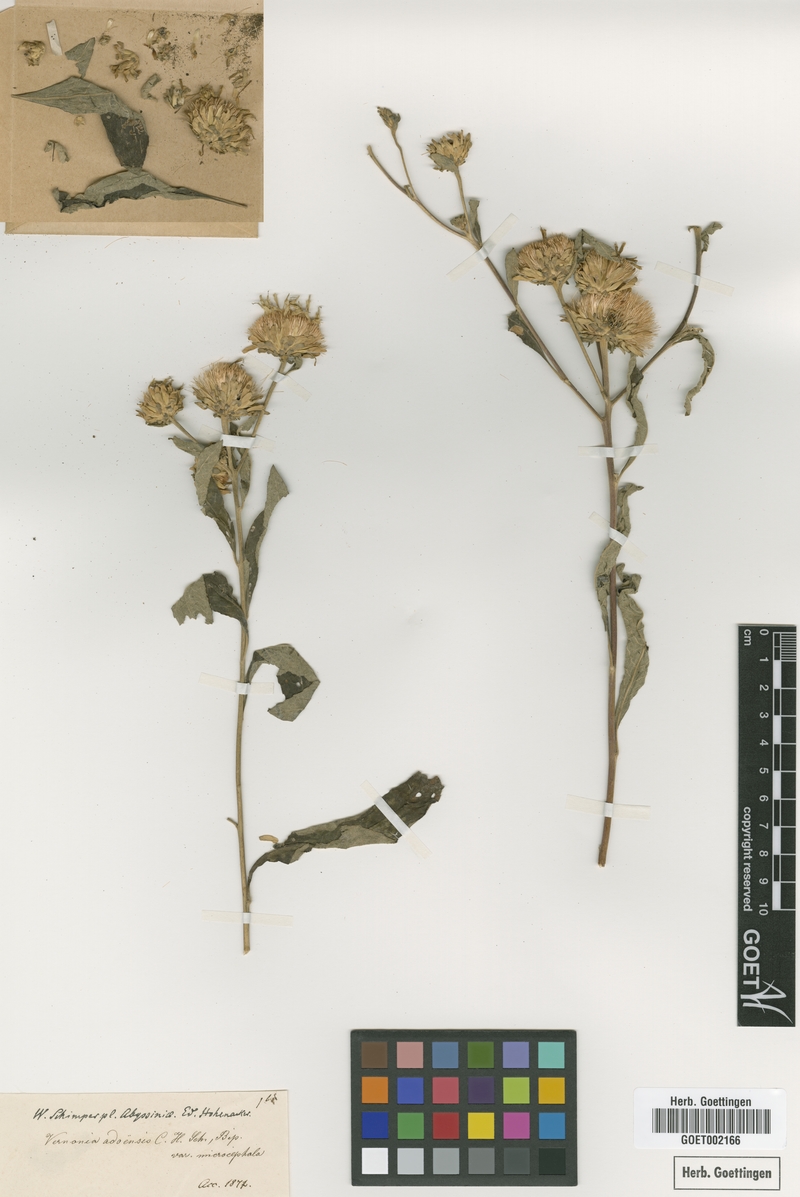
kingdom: Plantae
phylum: Tracheophyta
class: Magnoliopsida
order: Asterales
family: Asteraceae
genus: Baccharoides
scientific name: Baccharoides adoensis
